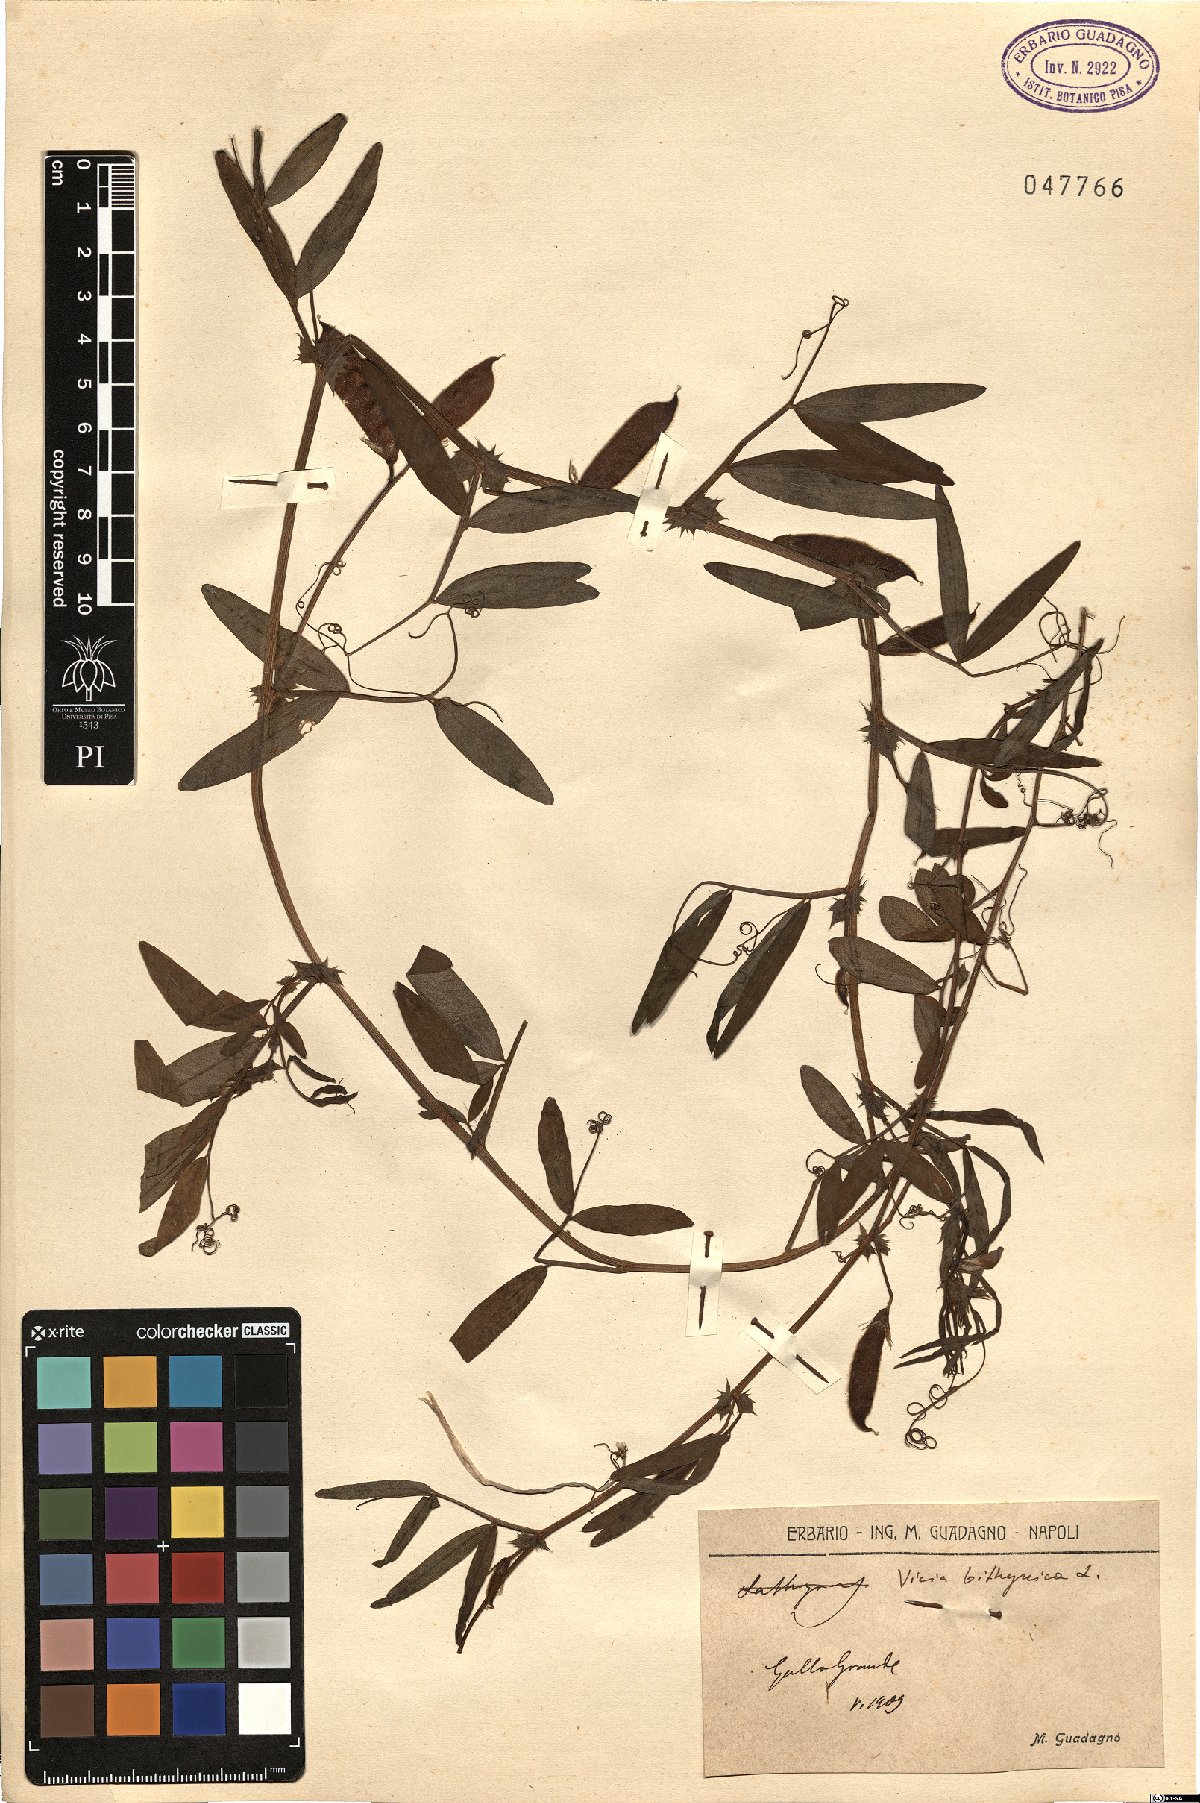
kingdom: Plantae
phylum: Tracheophyta
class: Magnoliopsida
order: Fabales
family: Fabaceae
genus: Vicia
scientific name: Vicia bithynica
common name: Bithynian vetch
